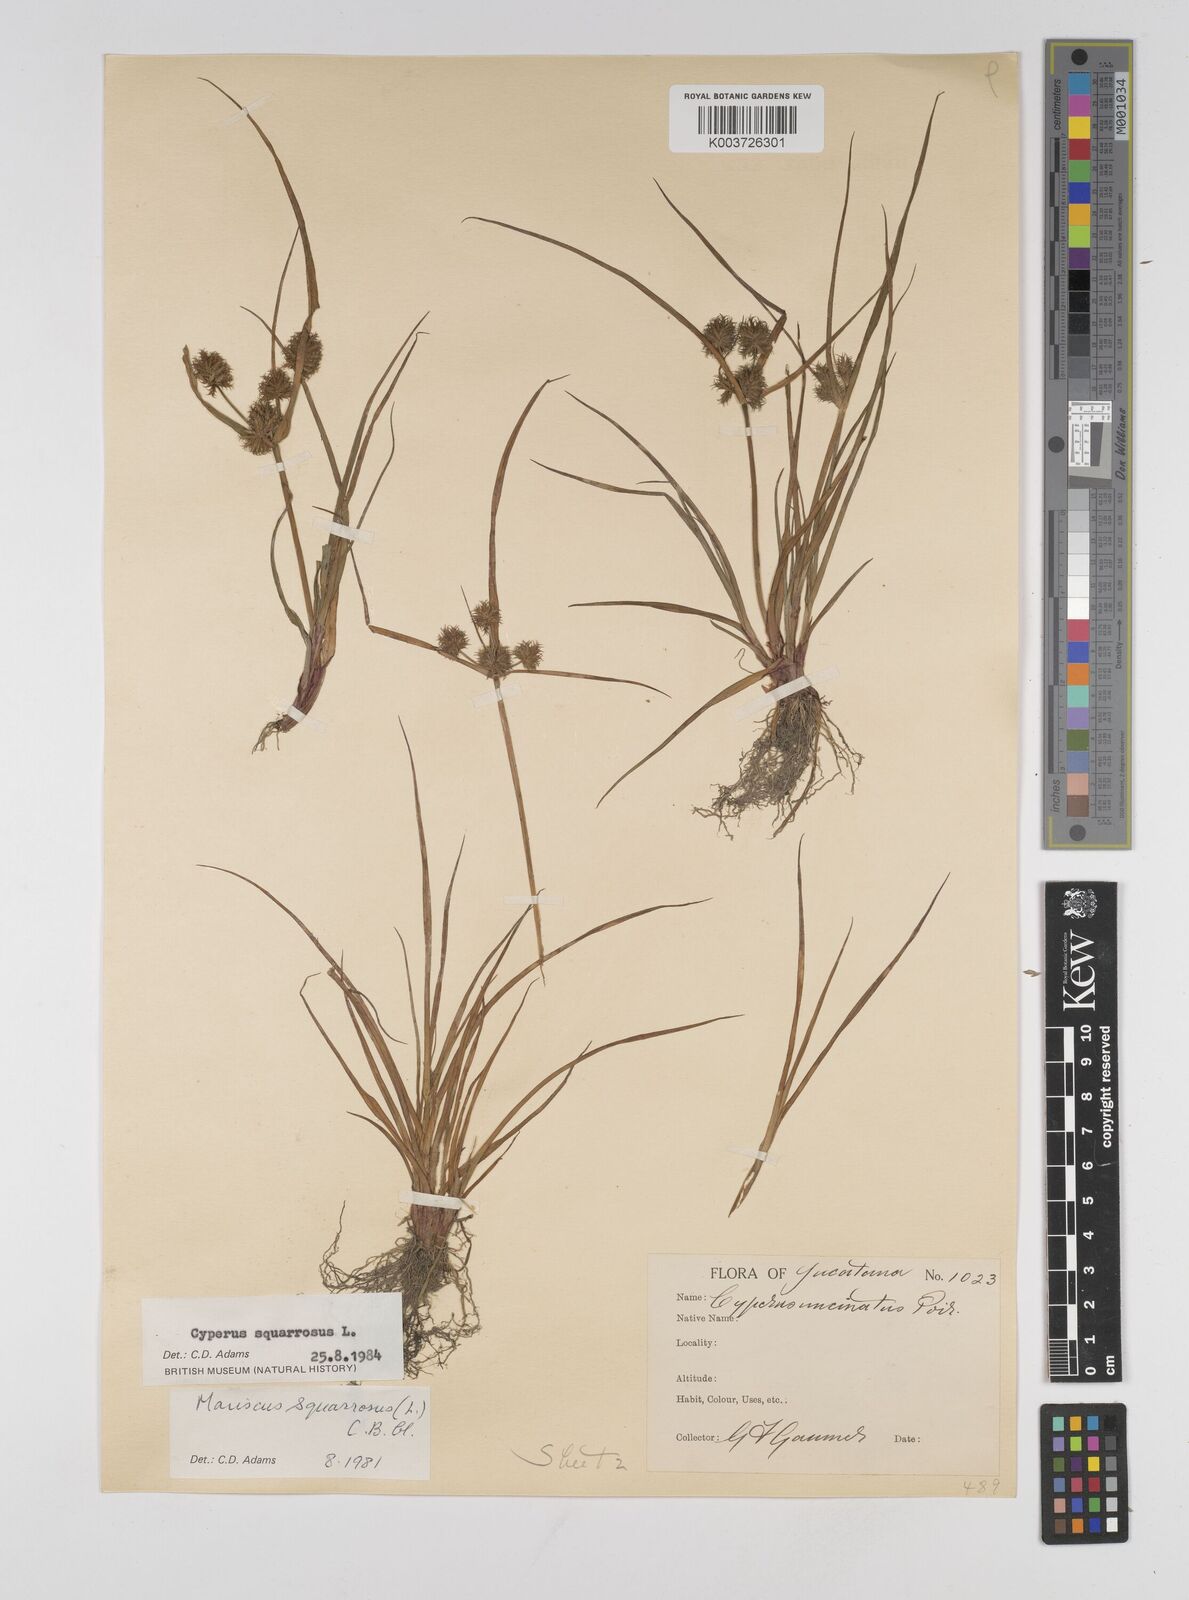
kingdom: Plantae
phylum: Tracheophyta
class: Liliopsida
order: Poales
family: Cyperaceae
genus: Cyperus
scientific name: Cyperus squarrosus
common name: Awned cyperus
